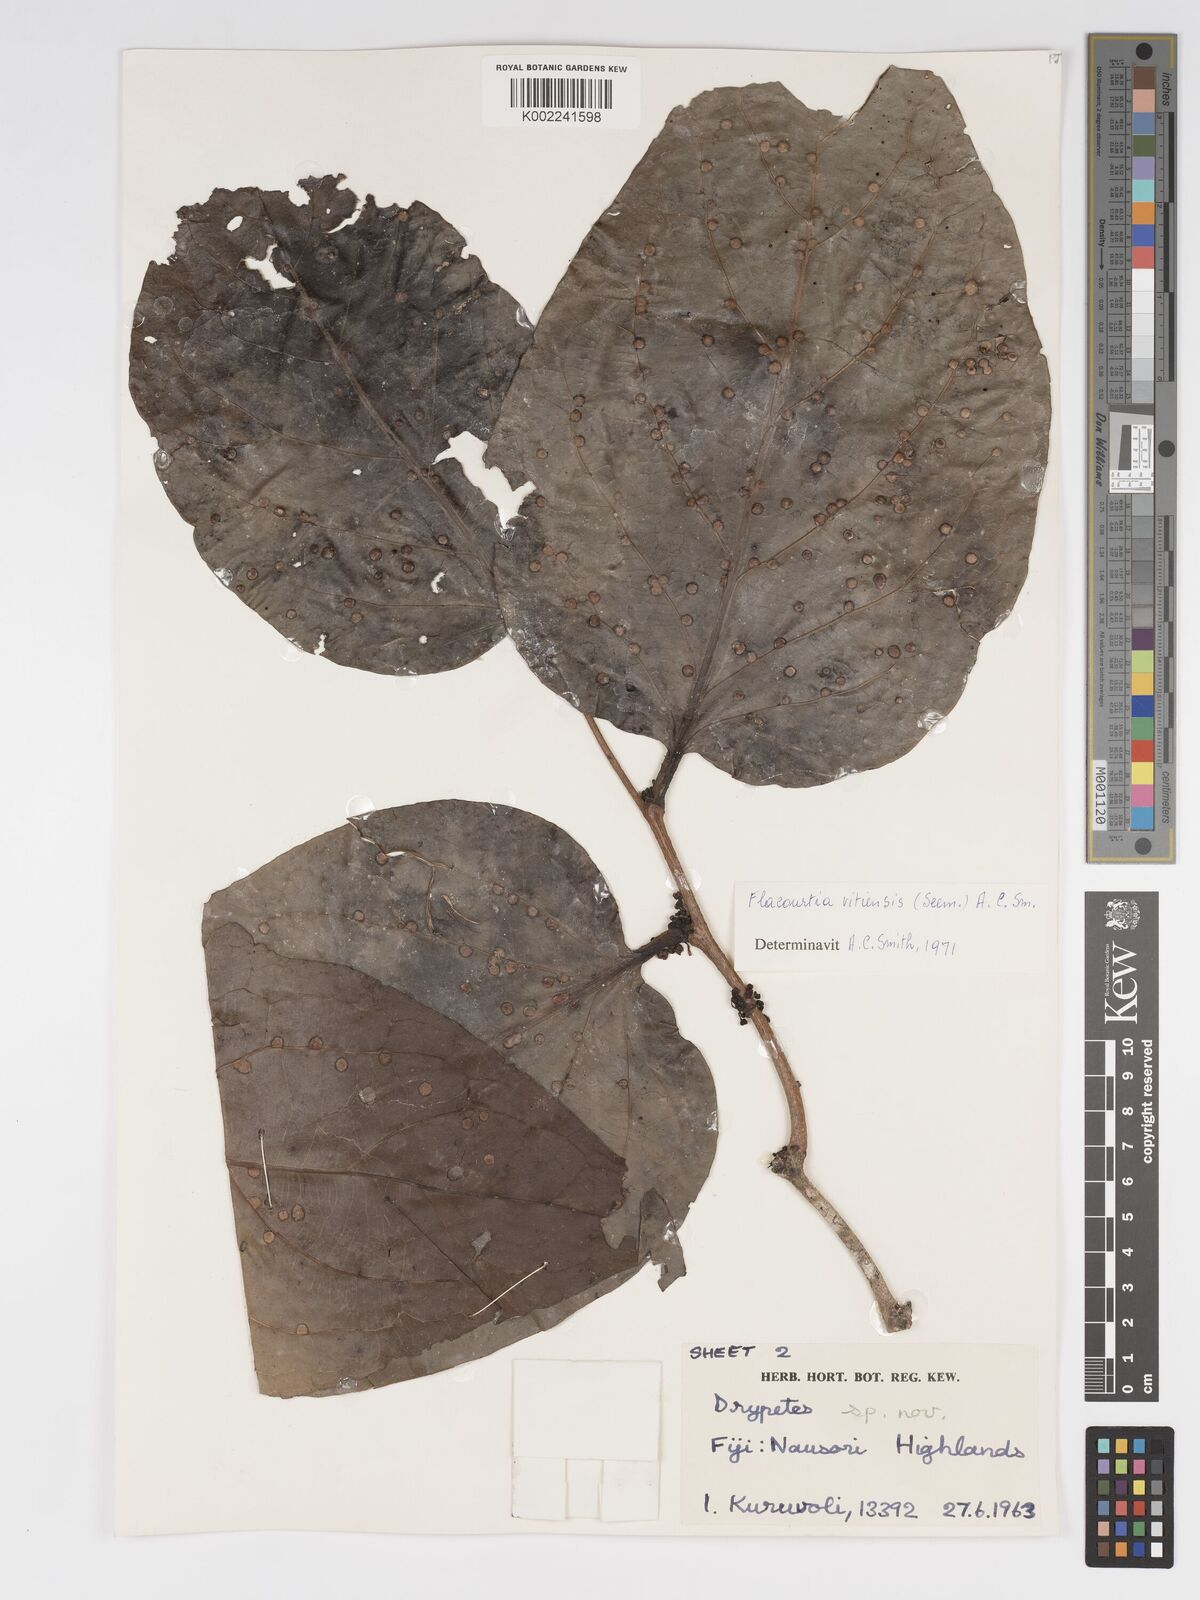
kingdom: Plantae
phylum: Tracheophyta
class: Magnoliopsida
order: Malpighiales
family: Salicaceae
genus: Flacourtia
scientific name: Flacourtia vitiensis
